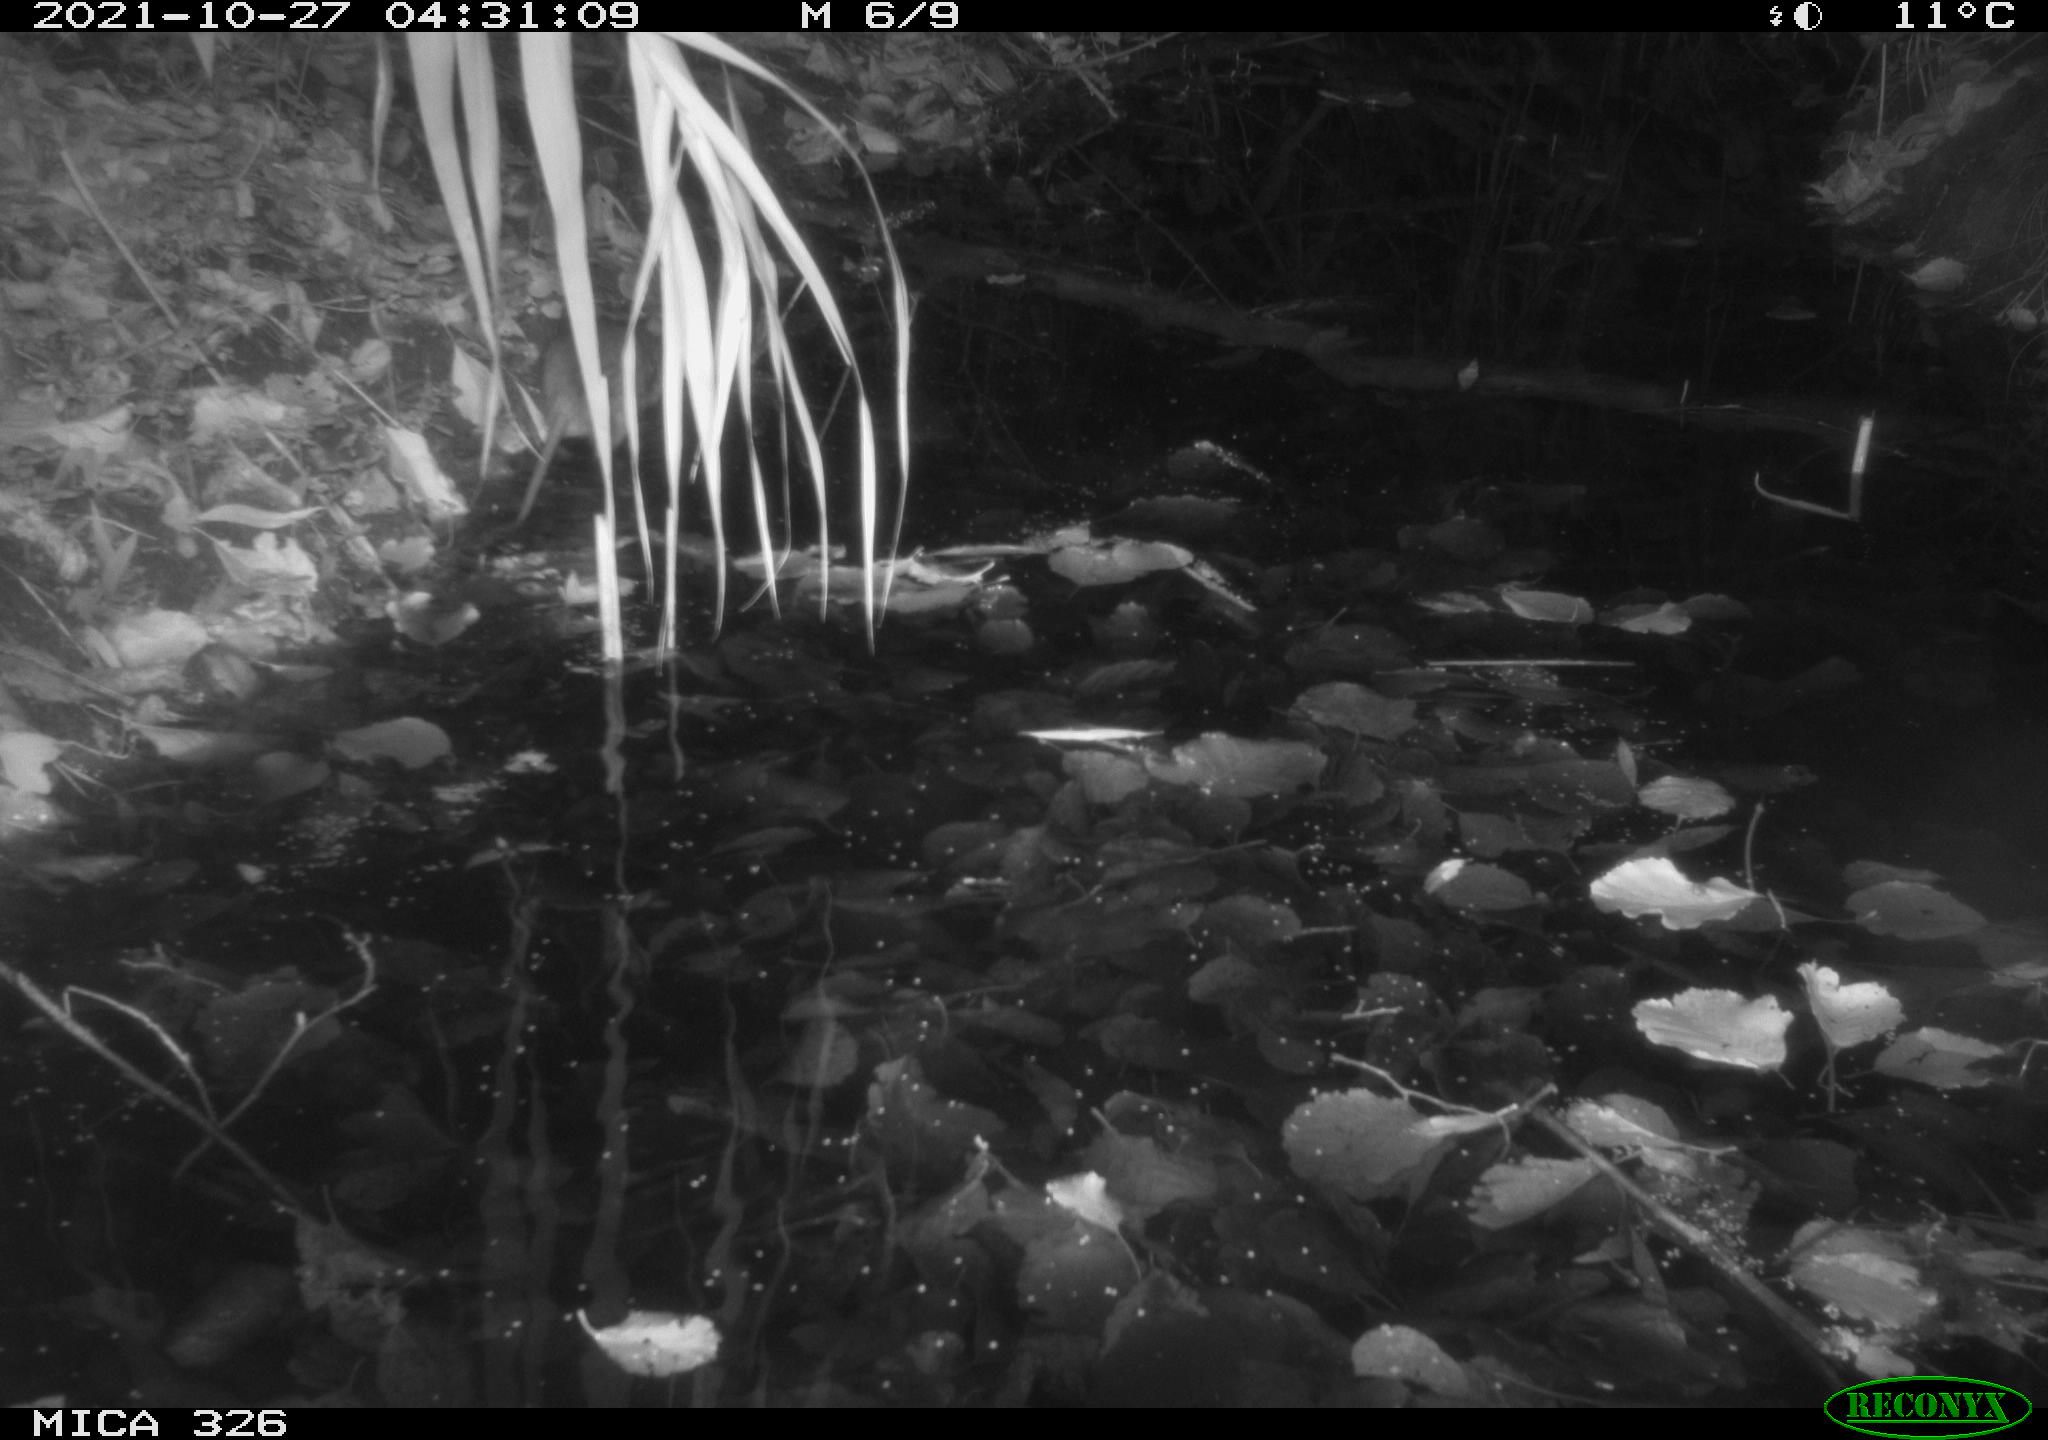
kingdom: Animalia
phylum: Chordata
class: Mammalia
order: Rodentia
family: Muridae
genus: Rattus
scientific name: Rattus norvegicus
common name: Brown rat
